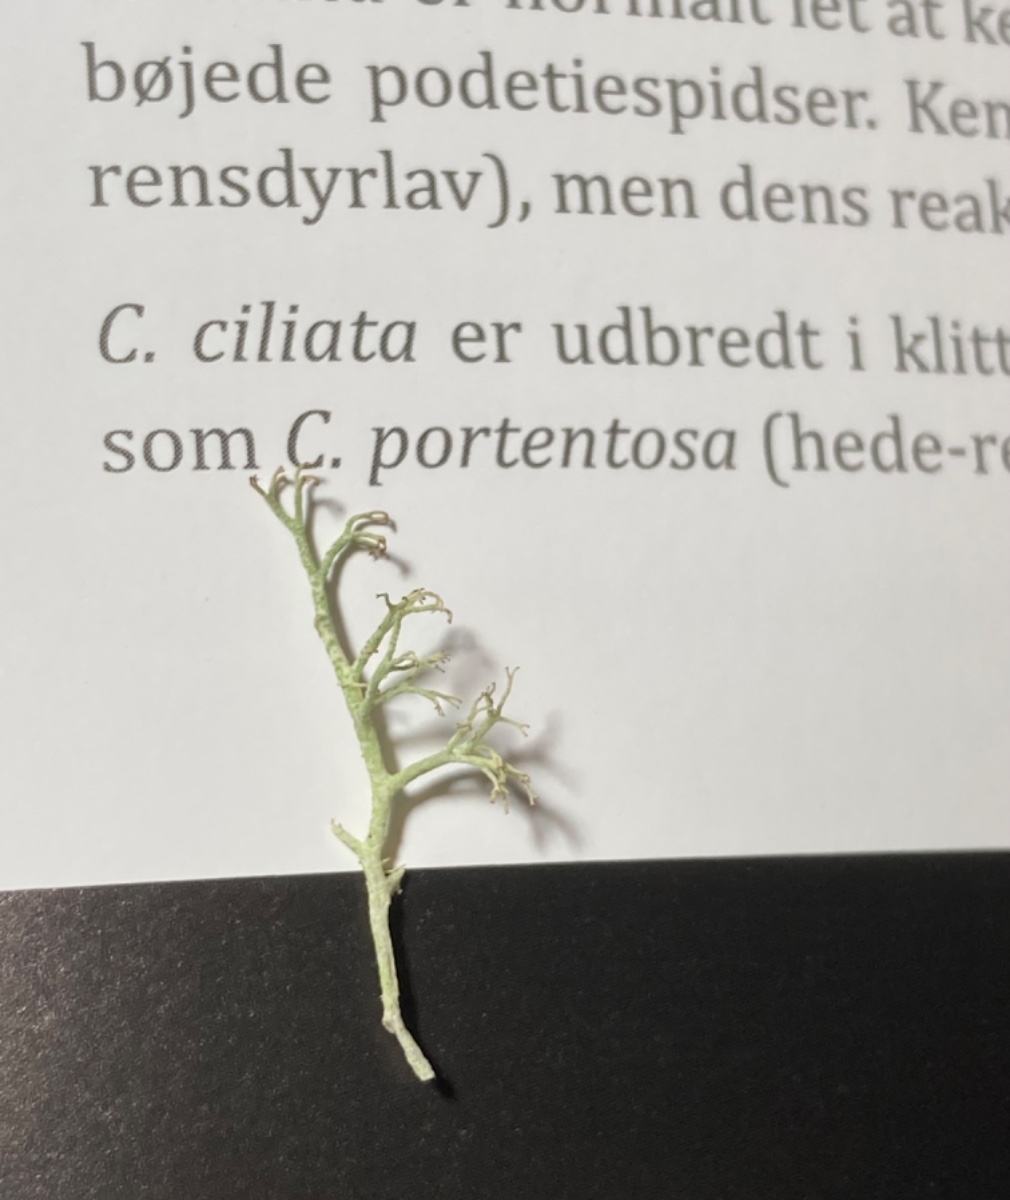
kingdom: Fungi
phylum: Ascomycota
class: Lecanoromycetes
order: Lecanorales
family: Cladoniaceae
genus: Cladonia
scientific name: Cladonia ciliata
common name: spinkel rensdyrlav
